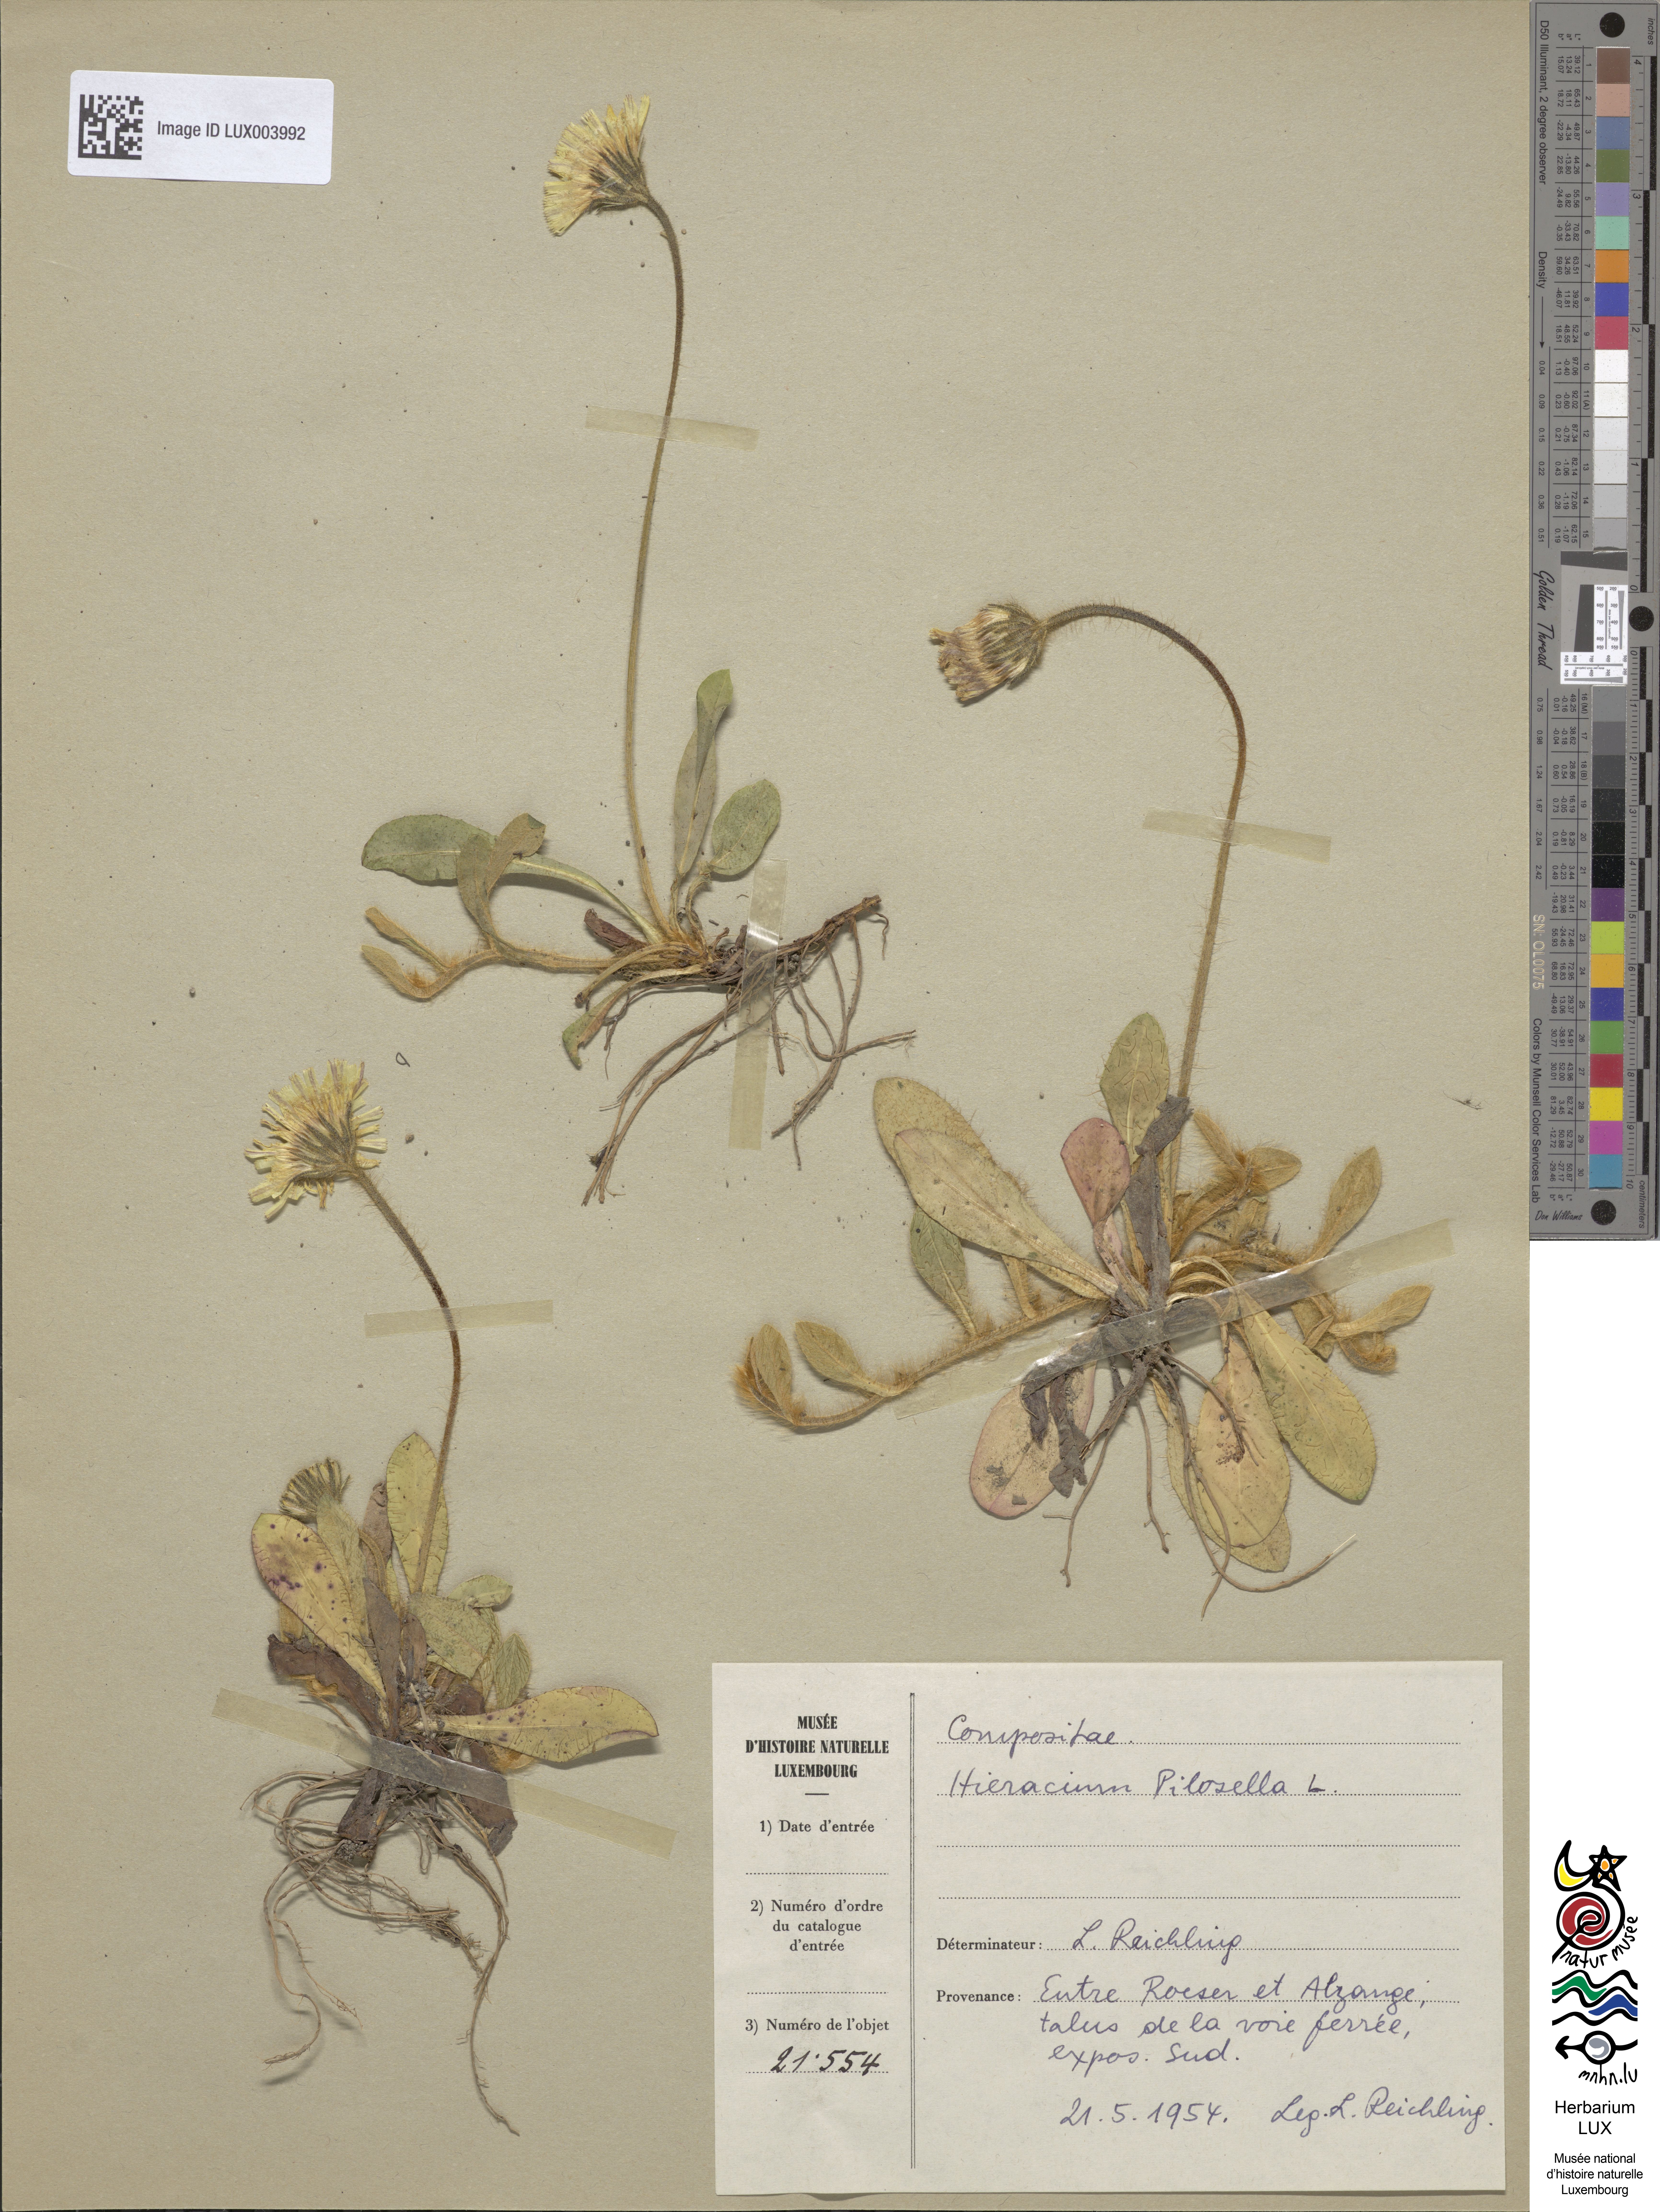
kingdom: Plantae
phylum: Tracheophyta
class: Magnoliopsida
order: Asterales
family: Asteraceae
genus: Pilosella
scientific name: Pilosella officinarum
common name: Mouse-ear hawkweed
